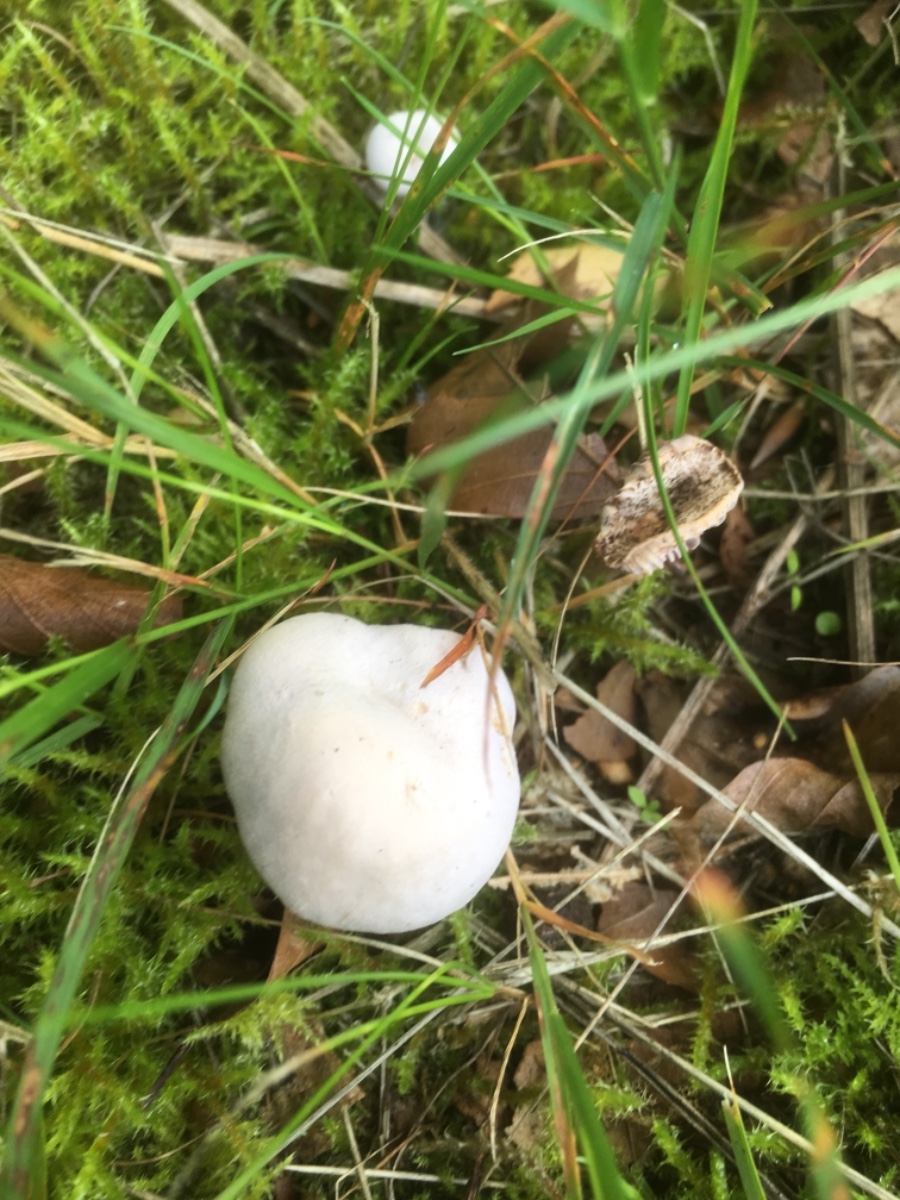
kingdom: Fungi
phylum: Basidiomycota
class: Agaricomycetes
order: Agaricales
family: Hydnangiaceae
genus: Laccaria
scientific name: Laccaria amethystina
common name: violet ametysthat
